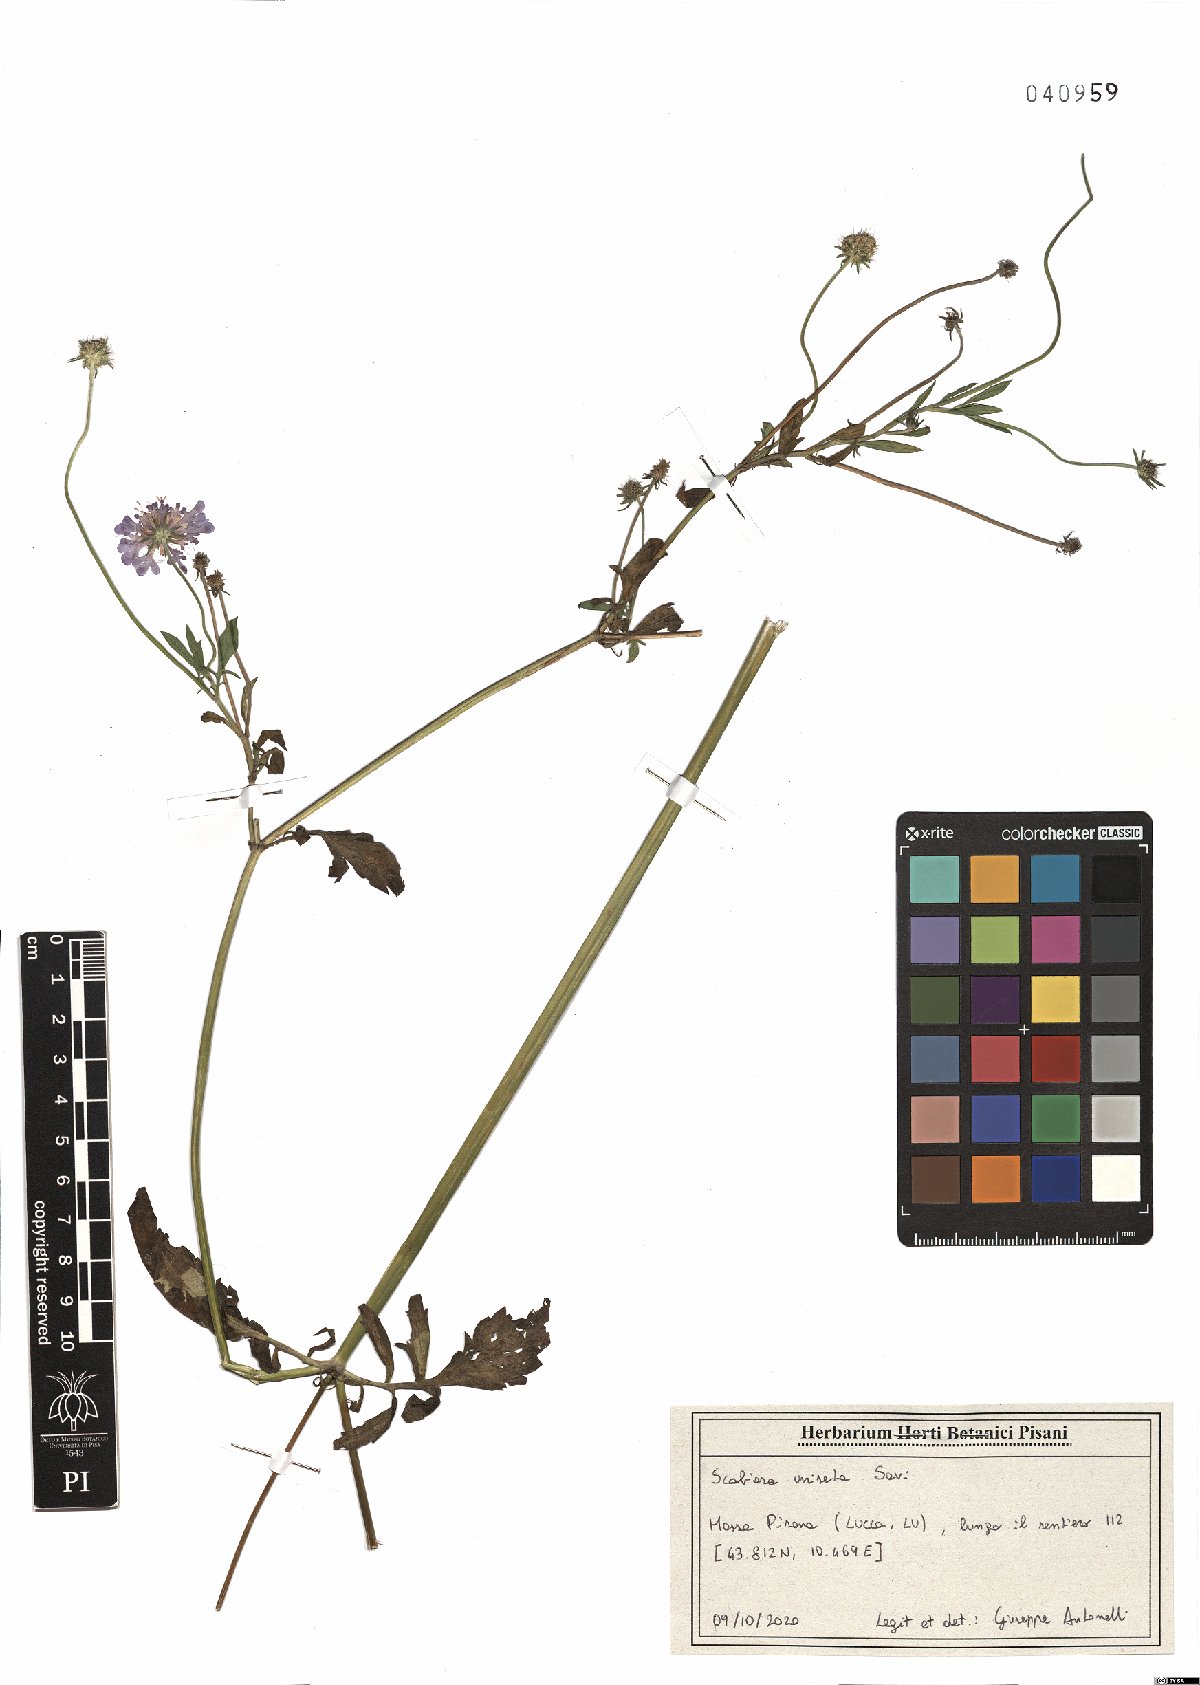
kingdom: Plantae
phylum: Tracheophyta
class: Magnoliopsida
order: Dipsacales
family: Caprifoliaceae
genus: Scabiosa
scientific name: Scabiosa columbaria
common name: Small scabious
